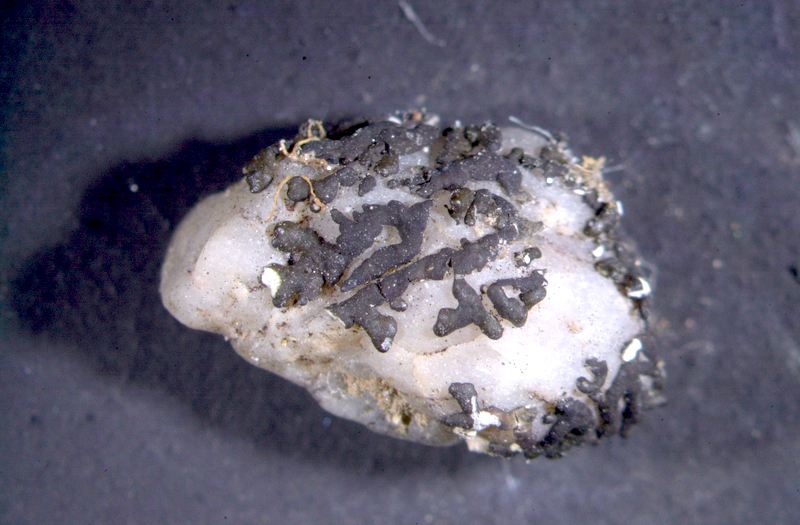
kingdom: Fungi
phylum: Ascomycota
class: Lecanoromycetes
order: Lecanorales
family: Ramalinaceae
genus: Ramalina
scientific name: Ramalina capensis
